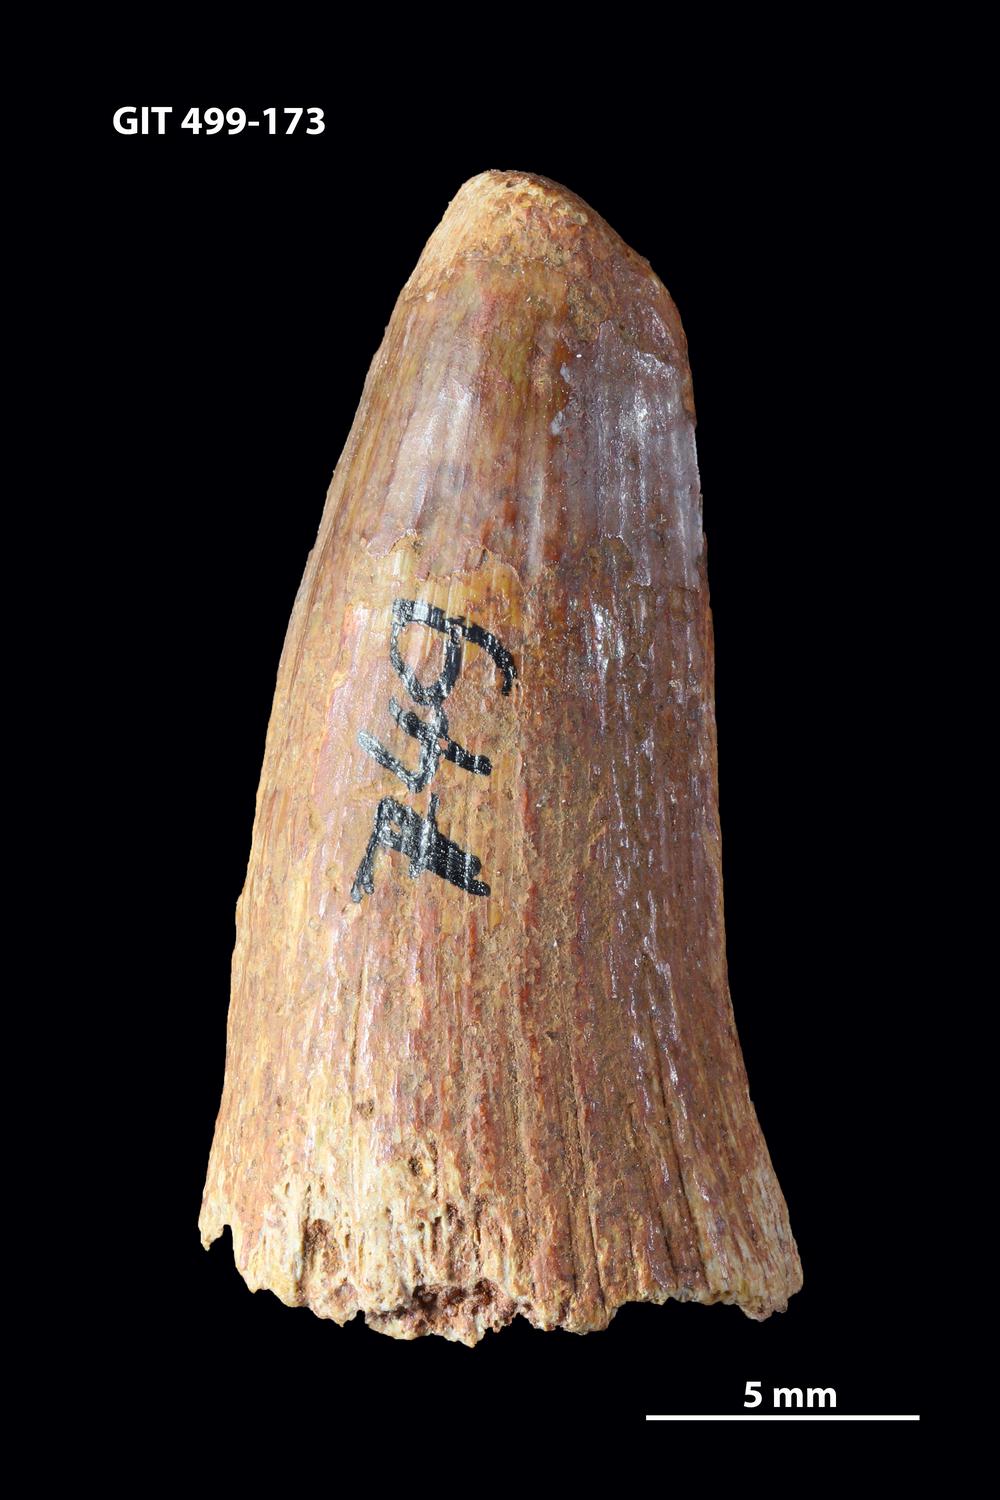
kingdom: Animalia
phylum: Chordata
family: Holoptychiidae
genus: Glyptolepis
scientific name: Glyptolepis
